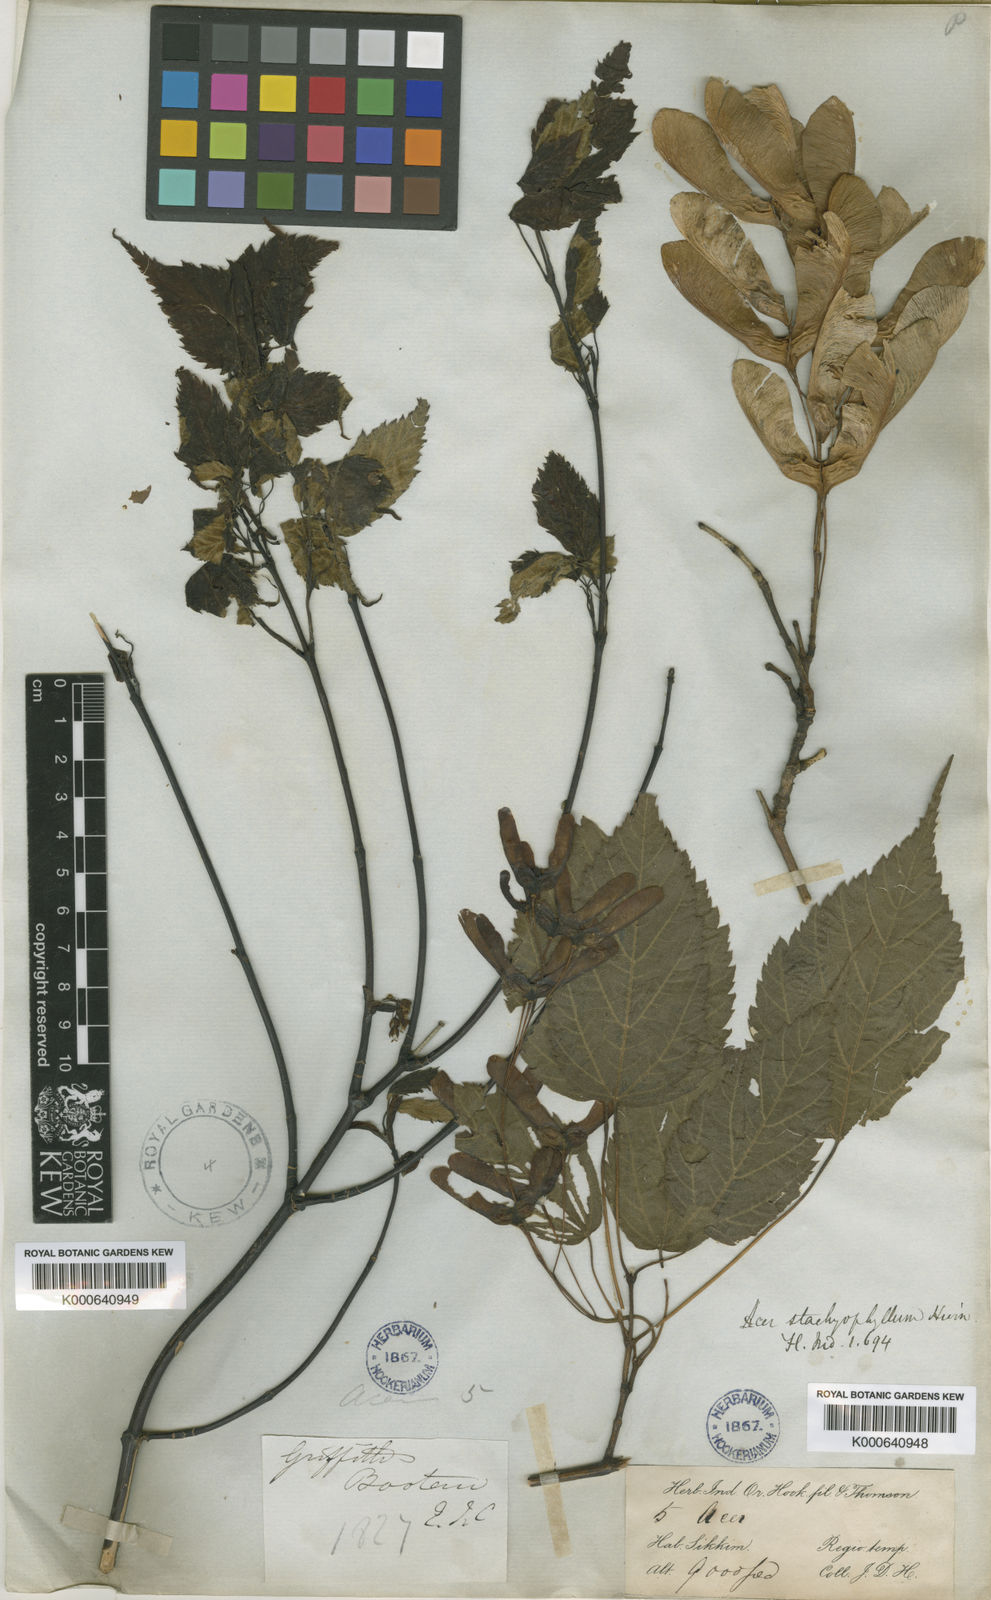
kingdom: Plantae
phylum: Tracheophyta
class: Magnoliopsida
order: Sapindales
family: Sapindaceae
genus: Acer
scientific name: Acer stachyophyllum
